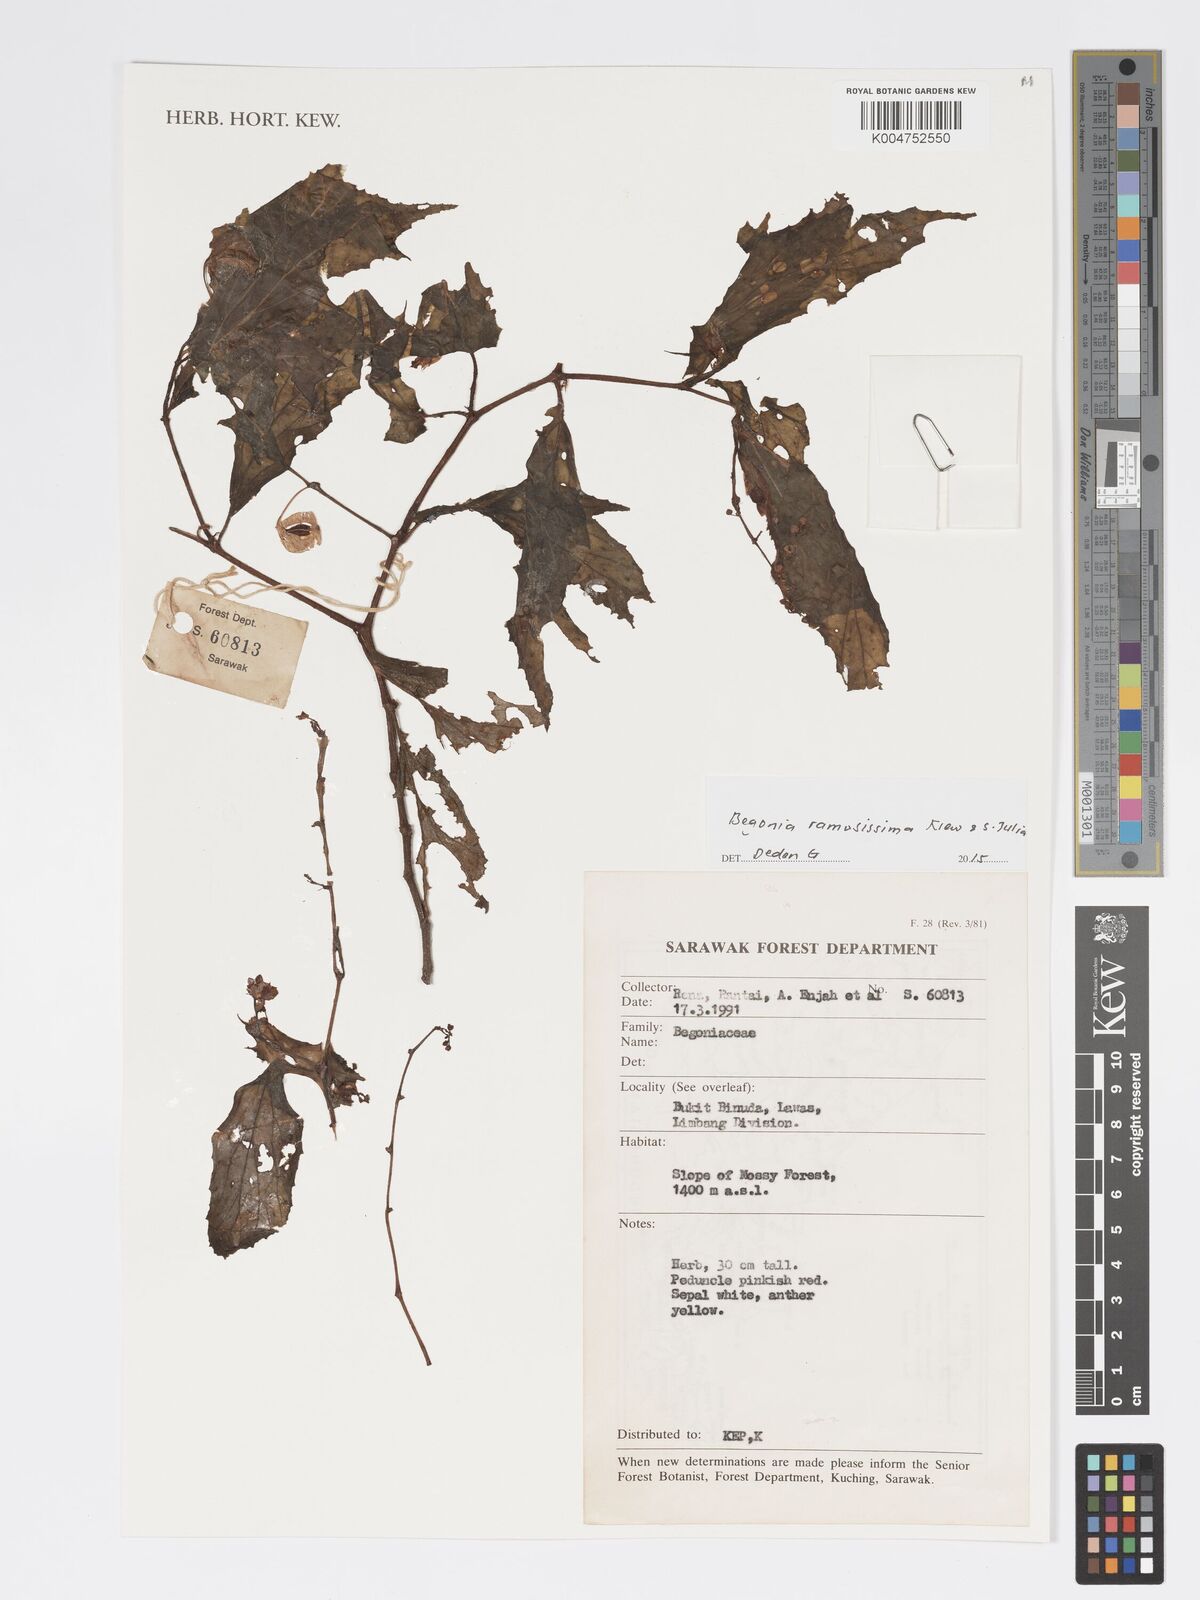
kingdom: Plantae
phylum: Tracheophyta
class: Magnoliopsida
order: Cucurbitales
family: Begoniaceae
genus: Begonia
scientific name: Begonia ramosissima
